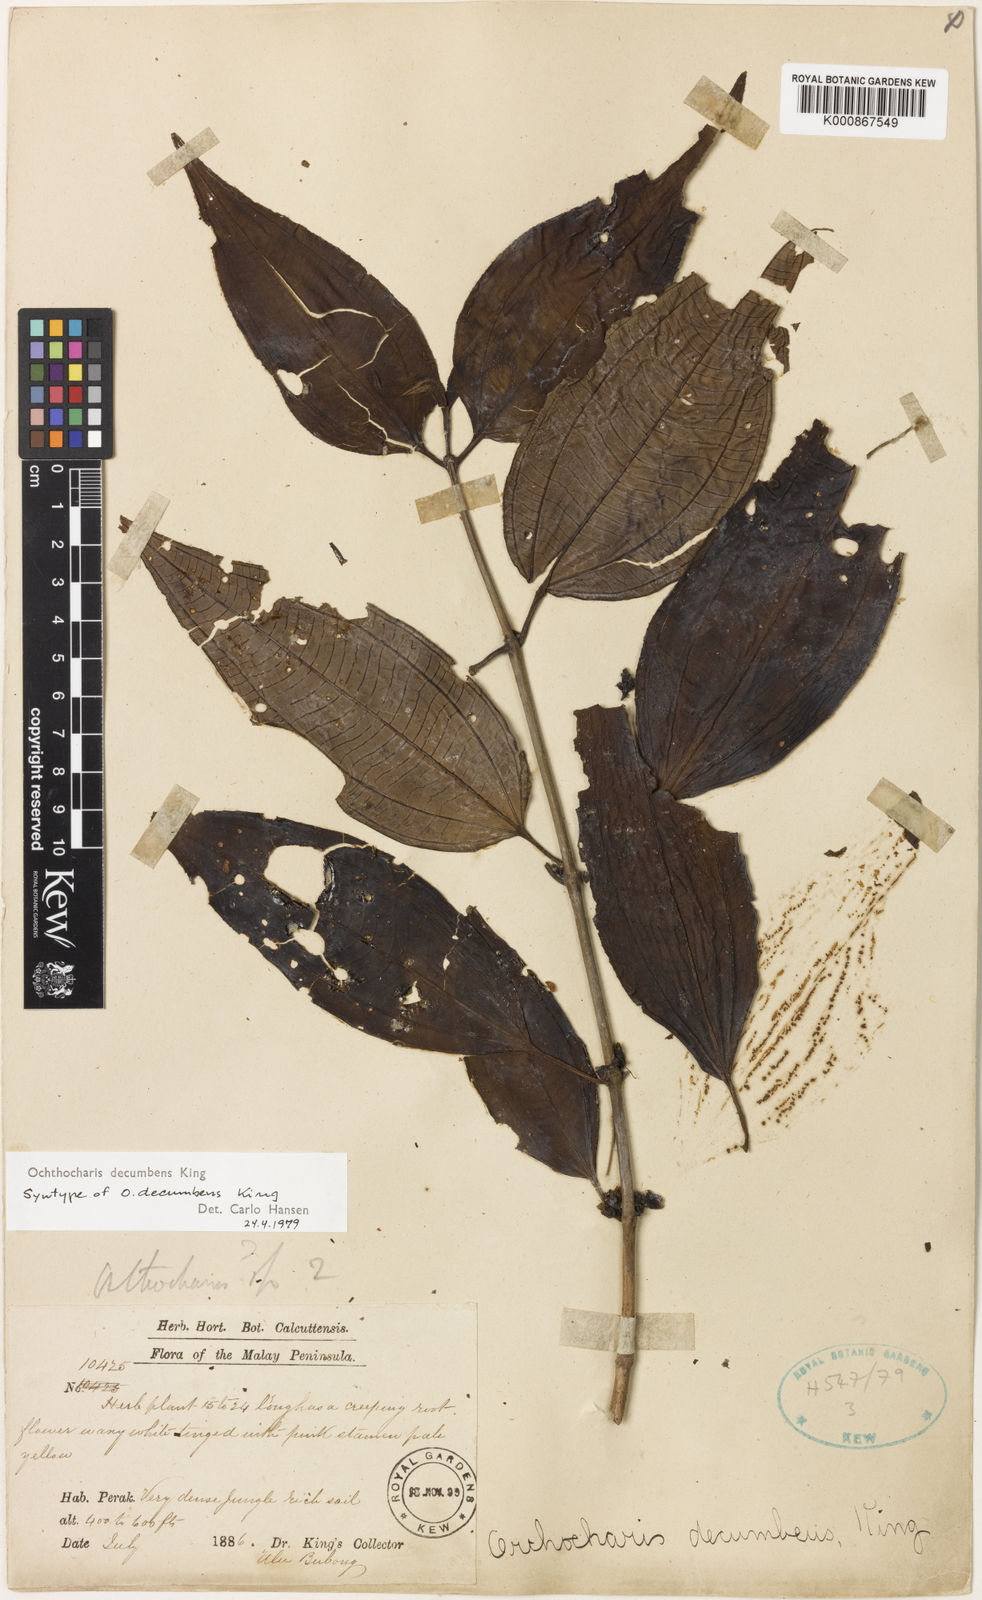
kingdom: Plantae
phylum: Tracheophyta
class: Magnoliopsida
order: Myrtales
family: Melastomataceae
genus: Ochthocharis
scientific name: Ochthocharis decumbens
